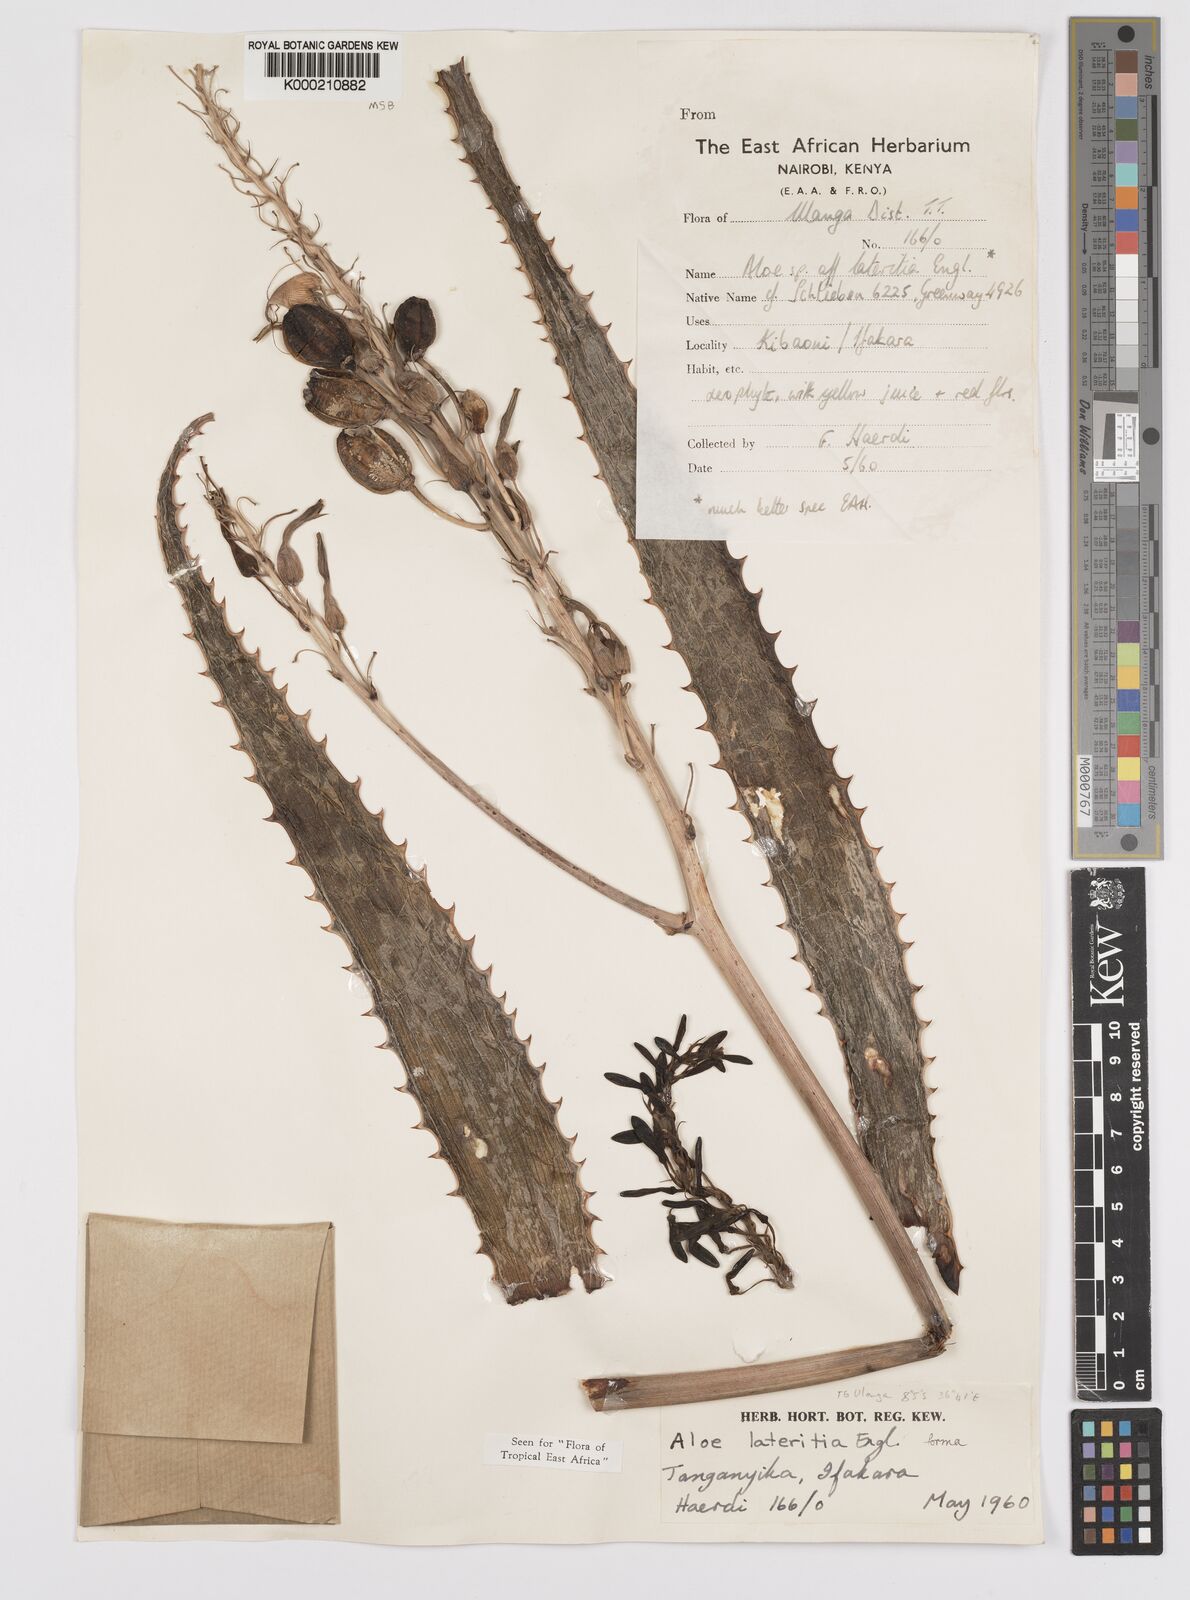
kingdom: Plantae
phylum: Tracheophyta
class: Liliopsida
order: Asparagales
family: Asphodelaceae
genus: Aloe
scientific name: Aloe lateritia
